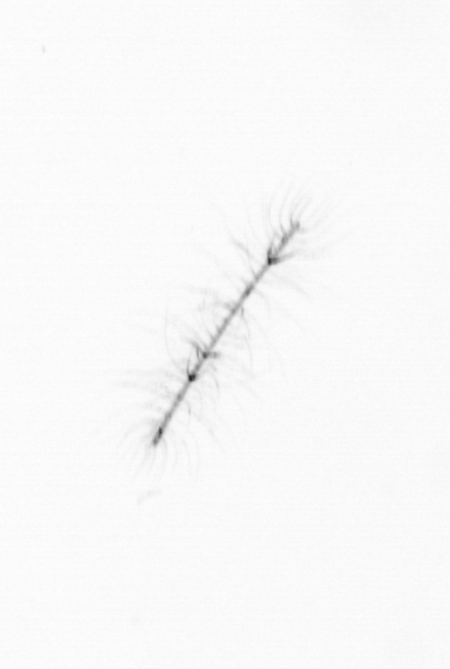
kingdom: Chromista
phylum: Ochrophyta
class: Bacillariophyceae
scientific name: Bacillariophyceae
